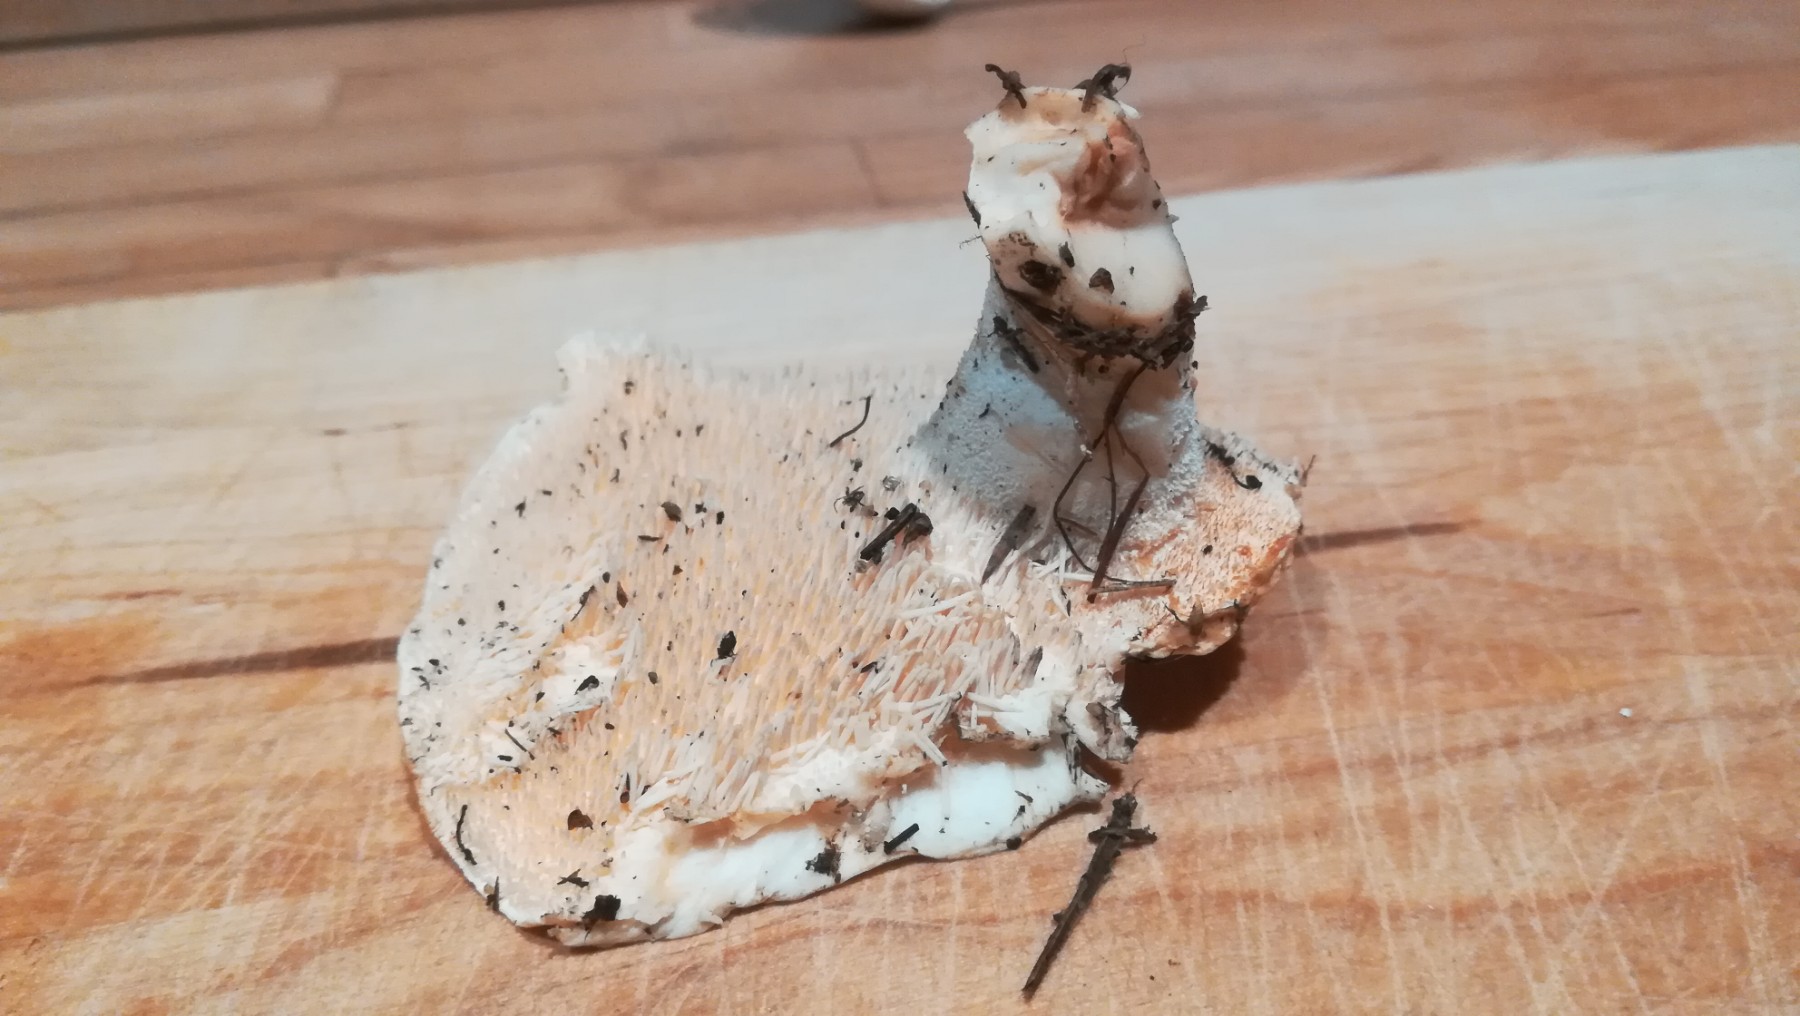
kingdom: Fungi
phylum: Basidiomycota
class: Agaricomycetes
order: Cantharellales
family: Hydnaceae
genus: Hydnum
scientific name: Hydnum repandum
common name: almindelig pigsvamp
